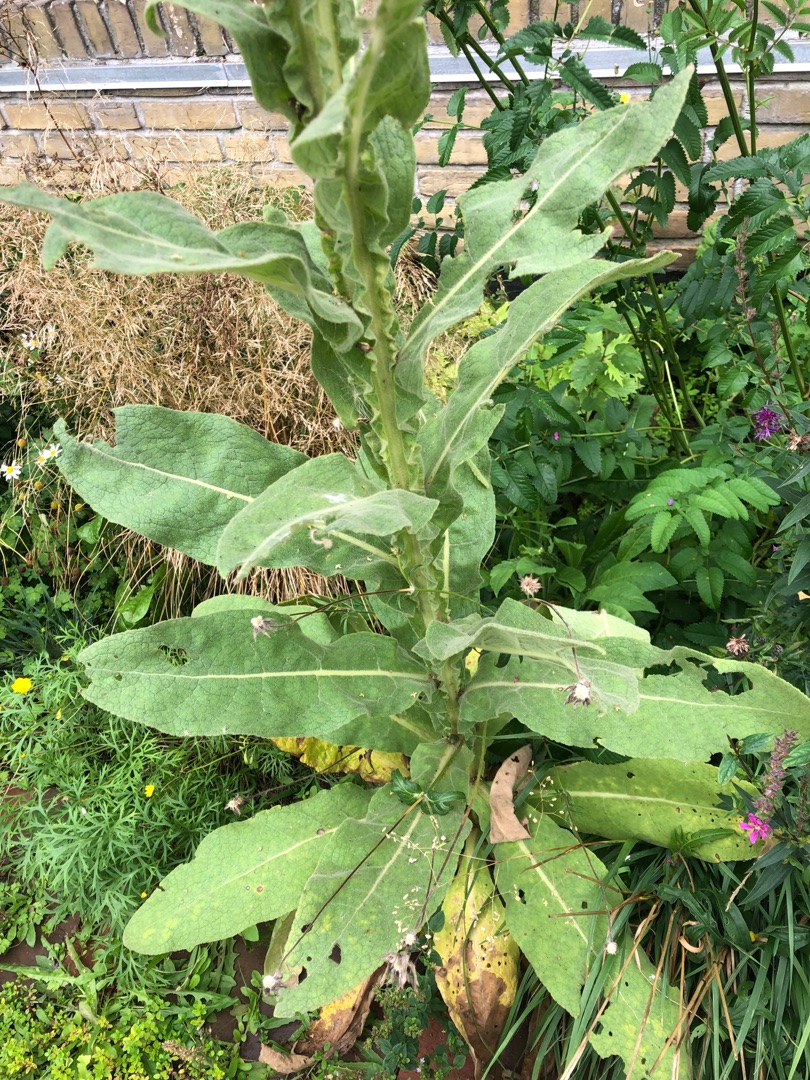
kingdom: Plantae
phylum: Tracheophyta
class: Magnoliopsida
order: Lamiales
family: Scrophulariaceae
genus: Verbascum
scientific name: Verbascum thapsus
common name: Filtbladet kongelys
